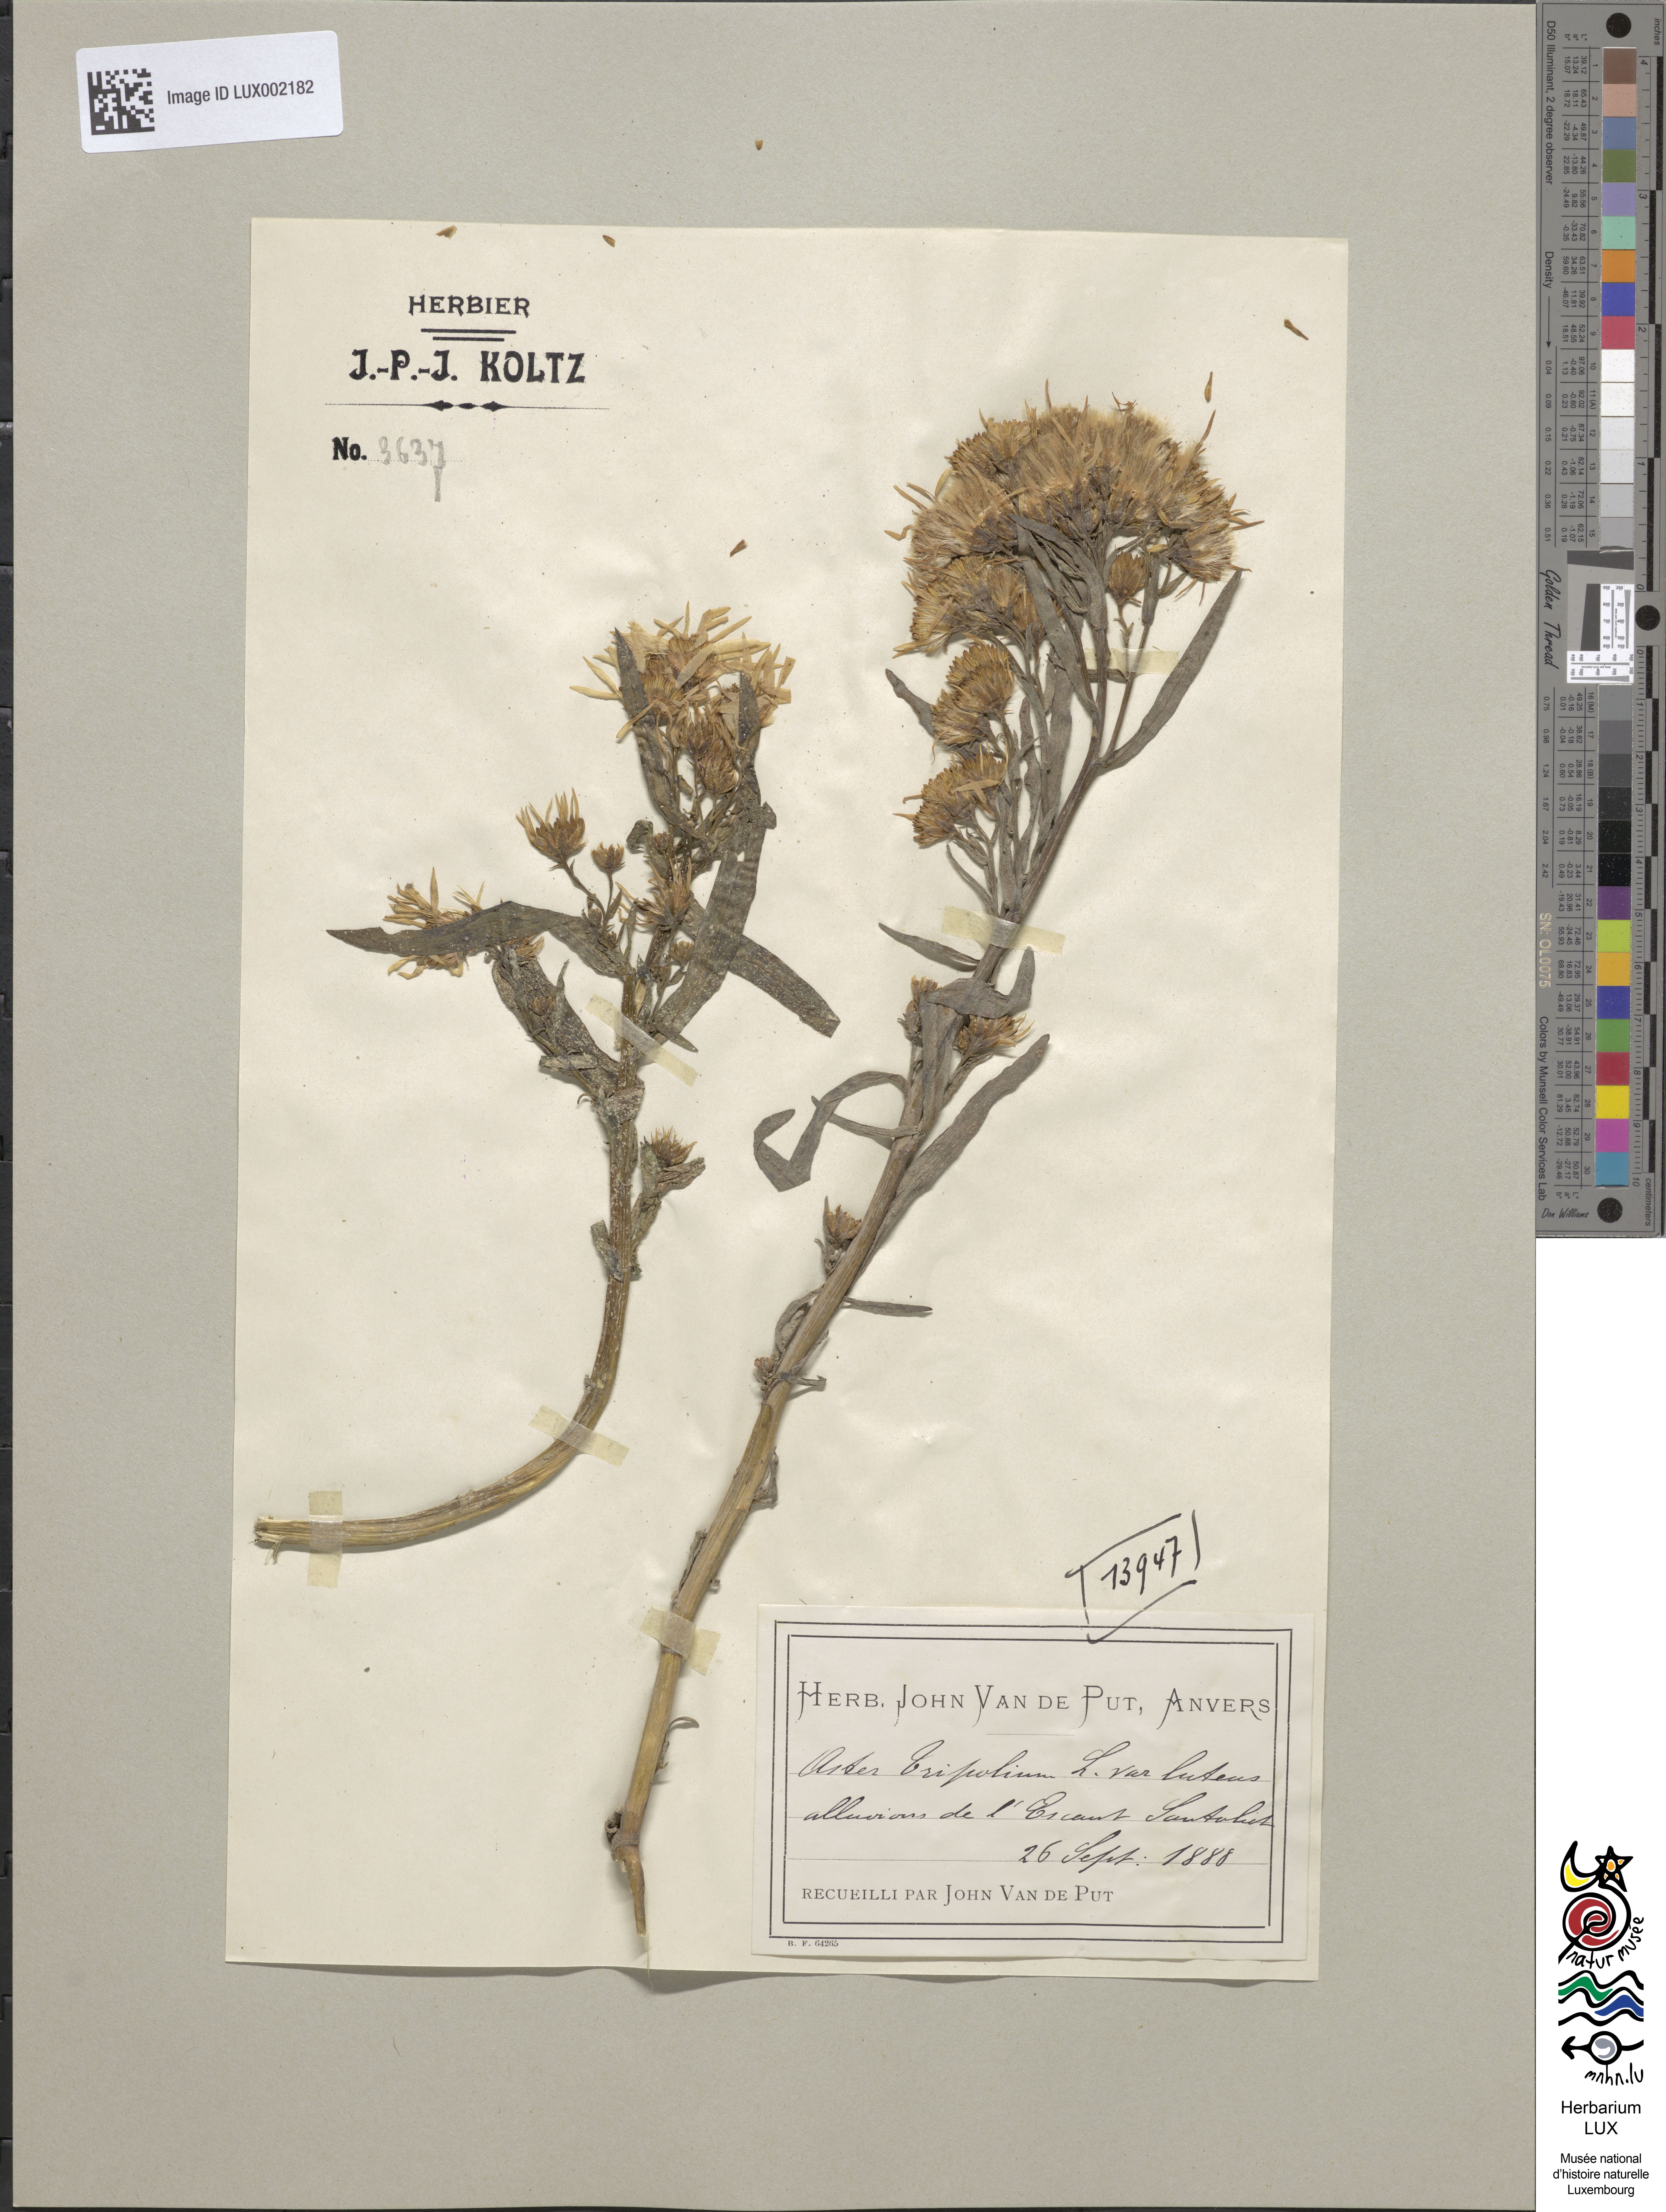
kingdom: Plantae
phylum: Tracheophyta
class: Magnoliopsida
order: Asterales
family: Asteraceae
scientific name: Asteraceae
